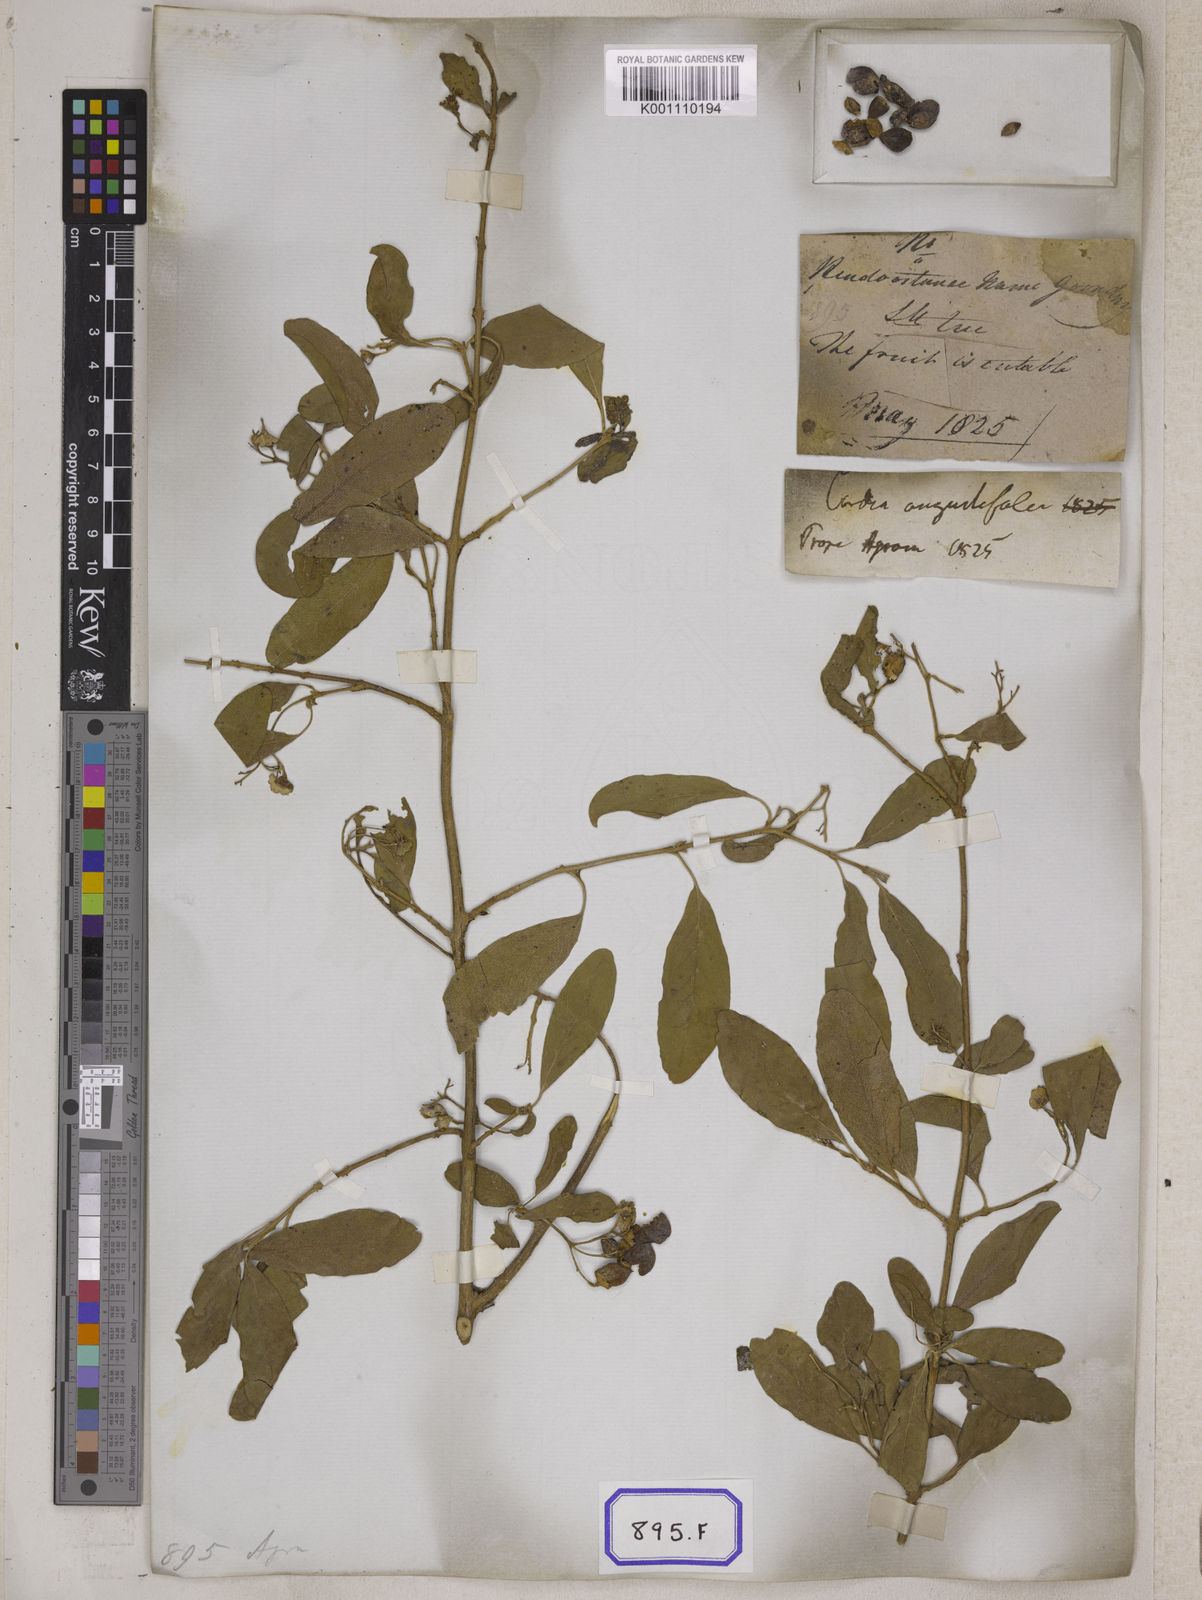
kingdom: Plantae
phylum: Tracheophyta
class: Magnoliopsida
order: Boraginales
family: Cordiaceae
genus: Cordia
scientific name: Cordia sinensis
